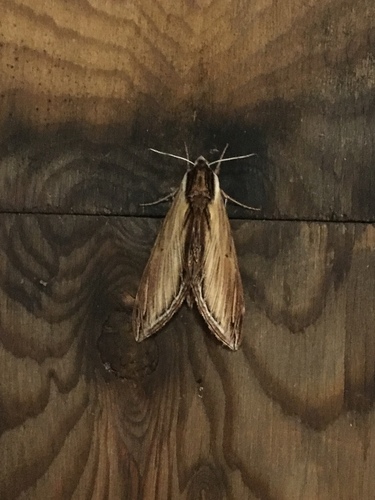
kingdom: Animalia
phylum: Arthropoda
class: Insecta
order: Lepidoptera
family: Sphingidae
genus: Sphinx
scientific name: Sphinx kalmiae
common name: Laurel sphinx
